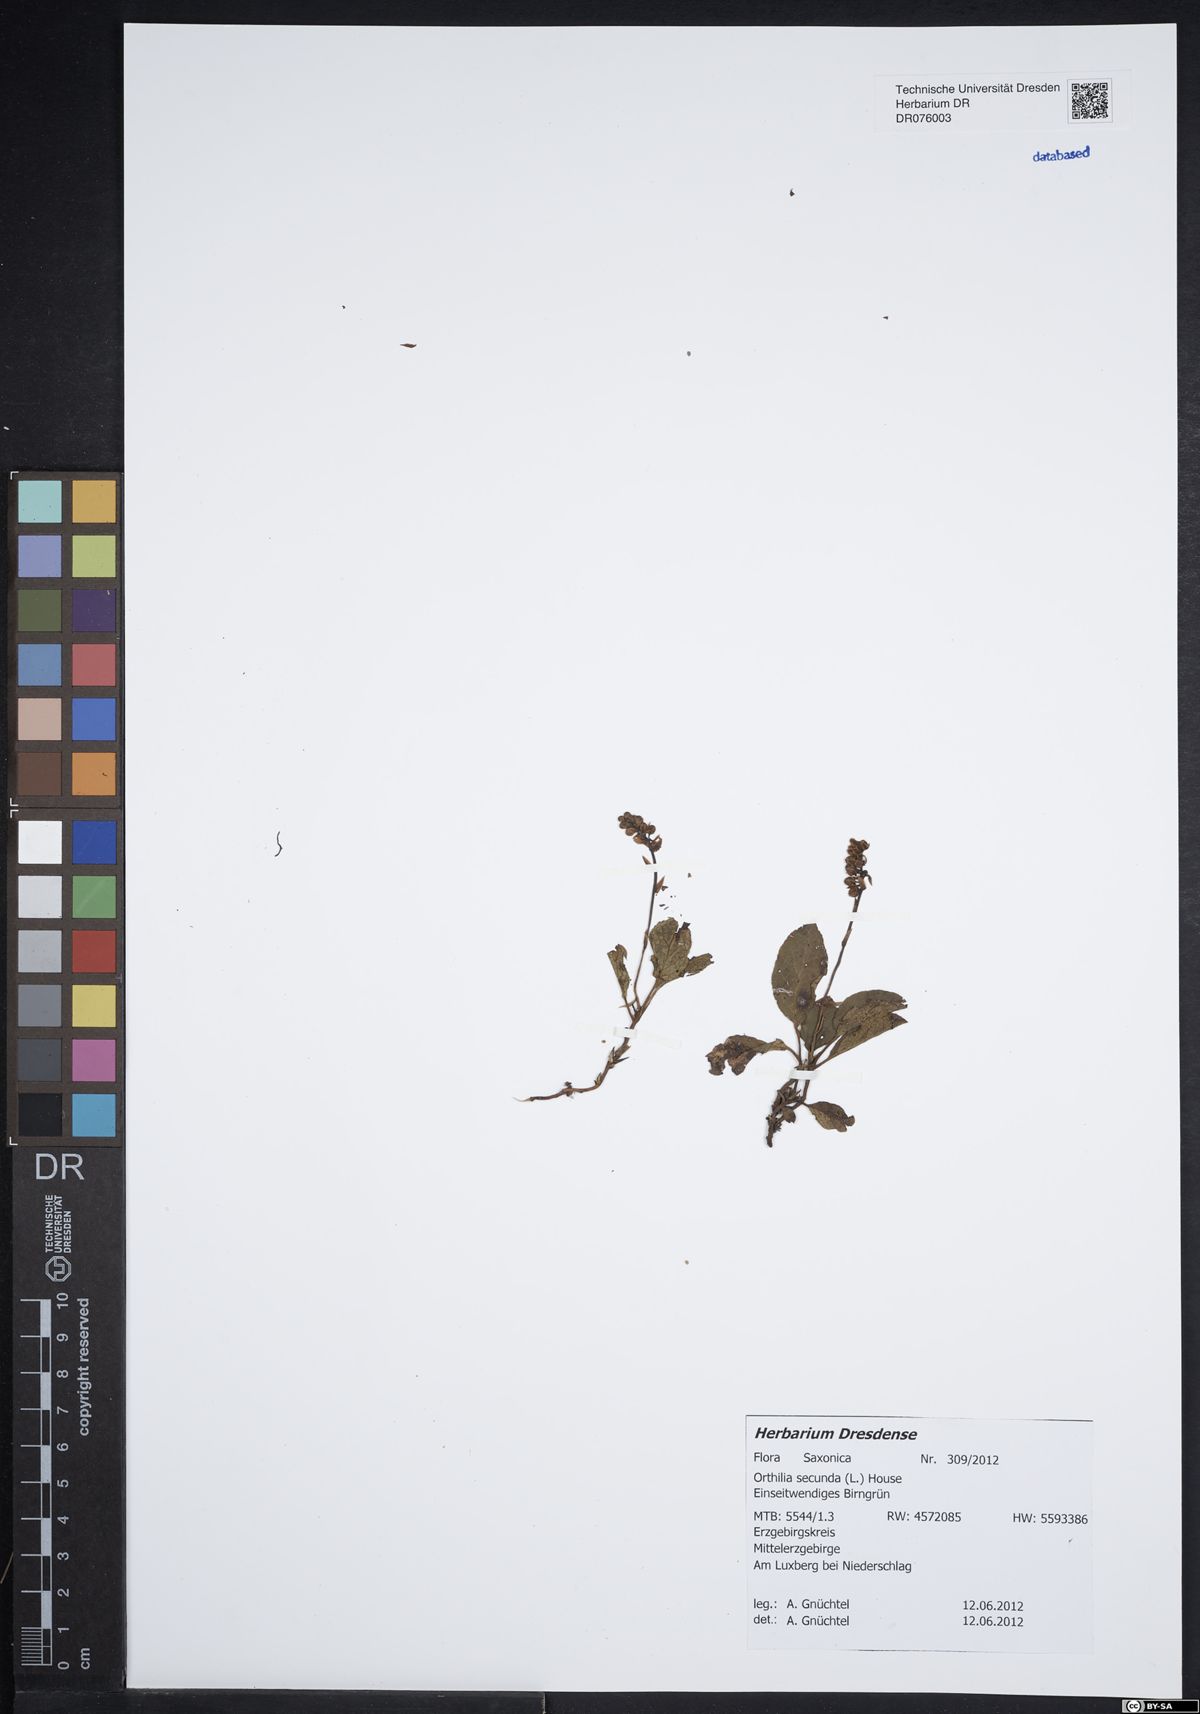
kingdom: Plantae
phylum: Tracheophyta
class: Magnoliopsida
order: Ericales
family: Ericaceae
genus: Orthilia
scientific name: Orthilia secunda
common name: One-sided orthilia
